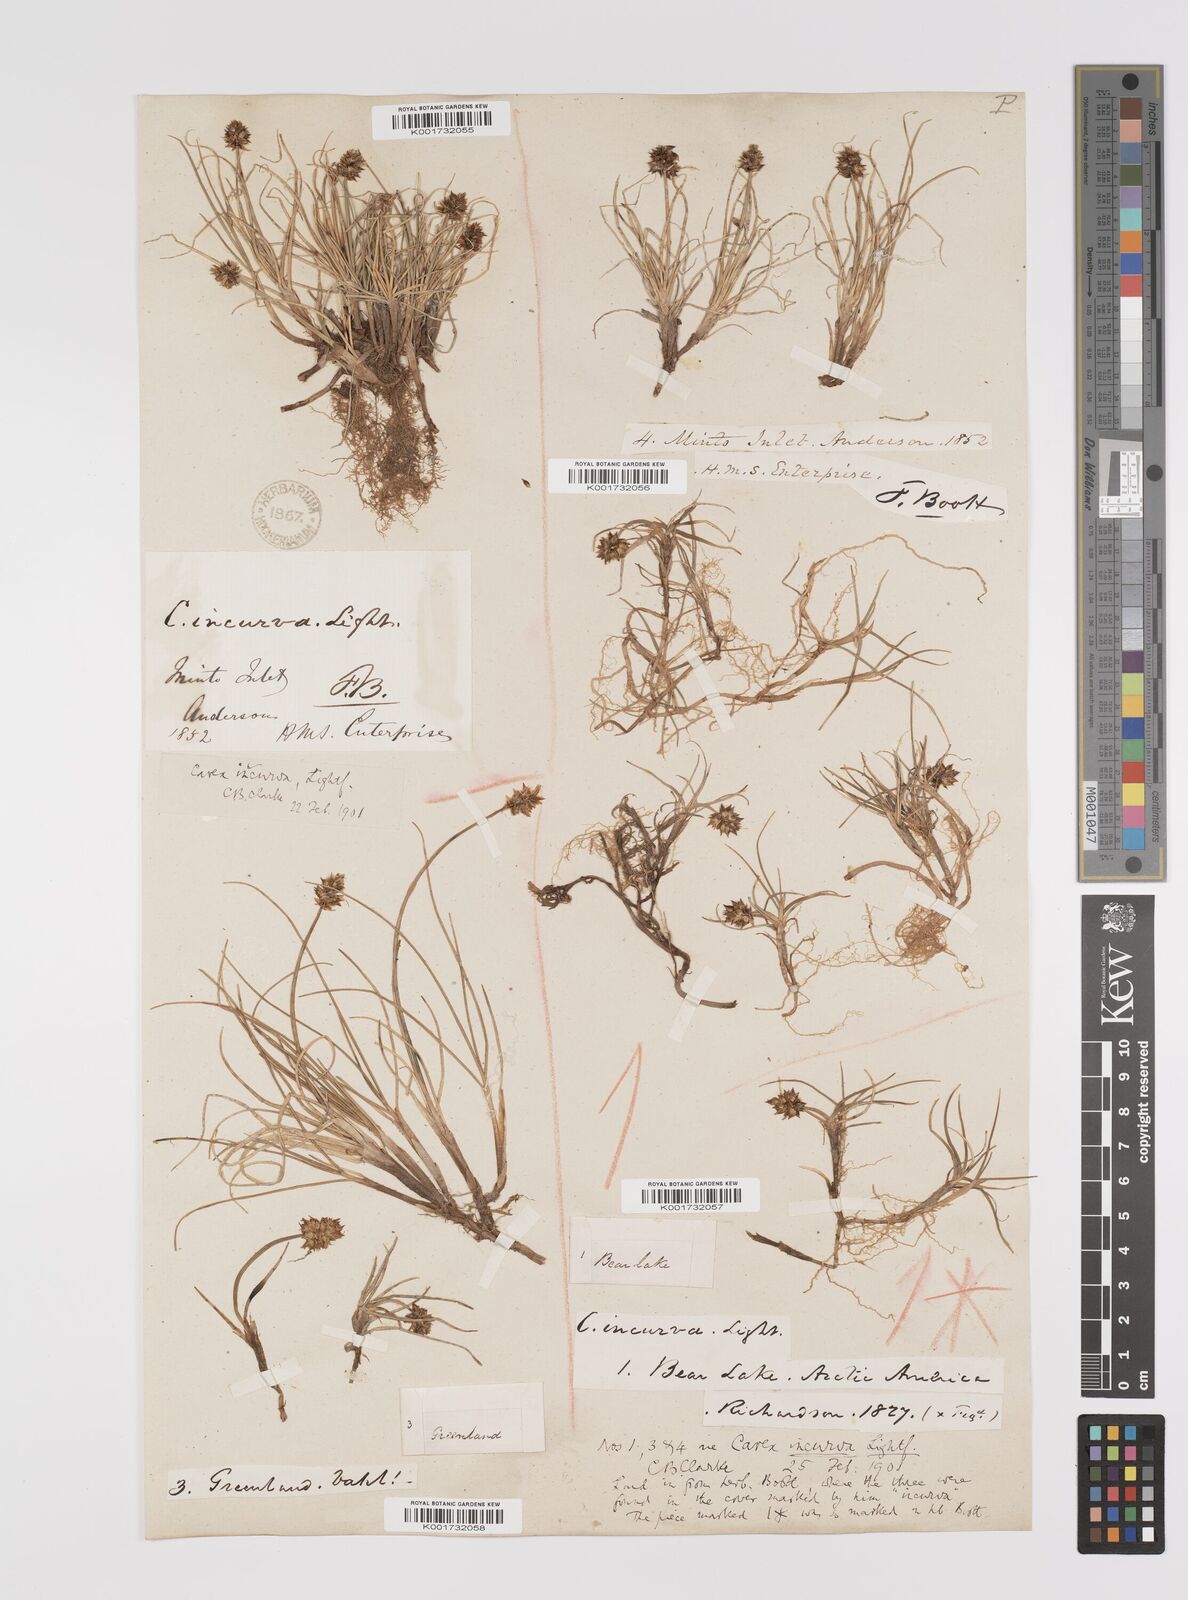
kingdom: Plantae
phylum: Tracheophyta
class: Liliopsida
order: Poales
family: Cyperaceae
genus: Carex
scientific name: Carex maritima
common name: Curved sedge
